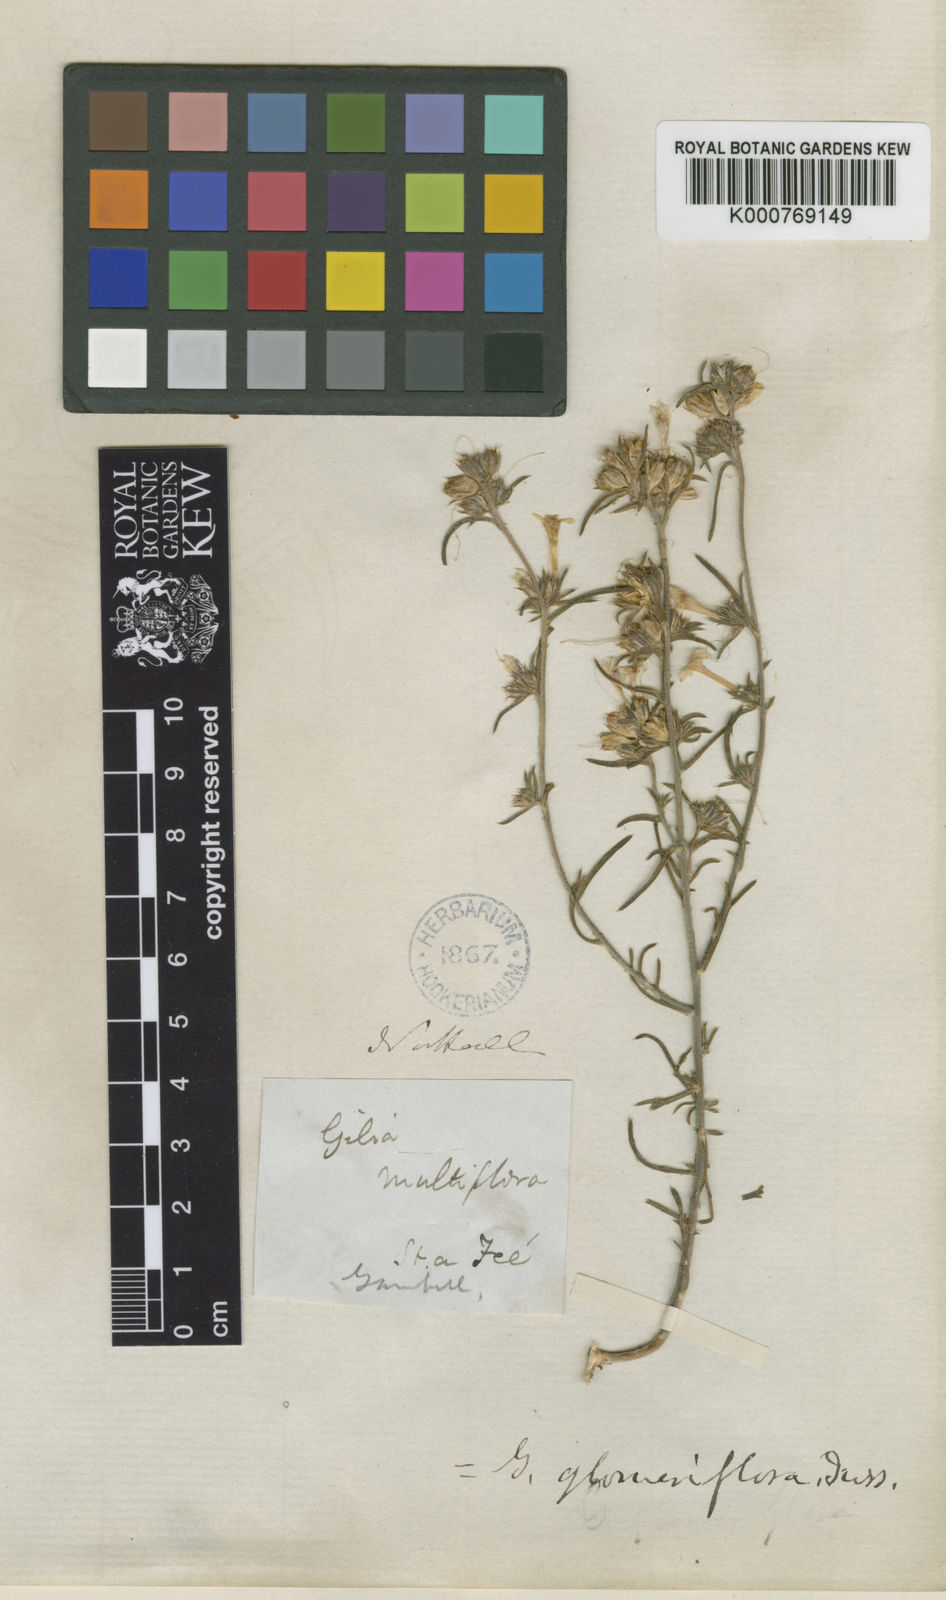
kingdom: Plantae
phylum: Tracheophyta
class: Magnoliopsida
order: Ericales
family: Polemoniaceae
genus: Ipomopsis
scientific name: Ipomopsis multiflora
